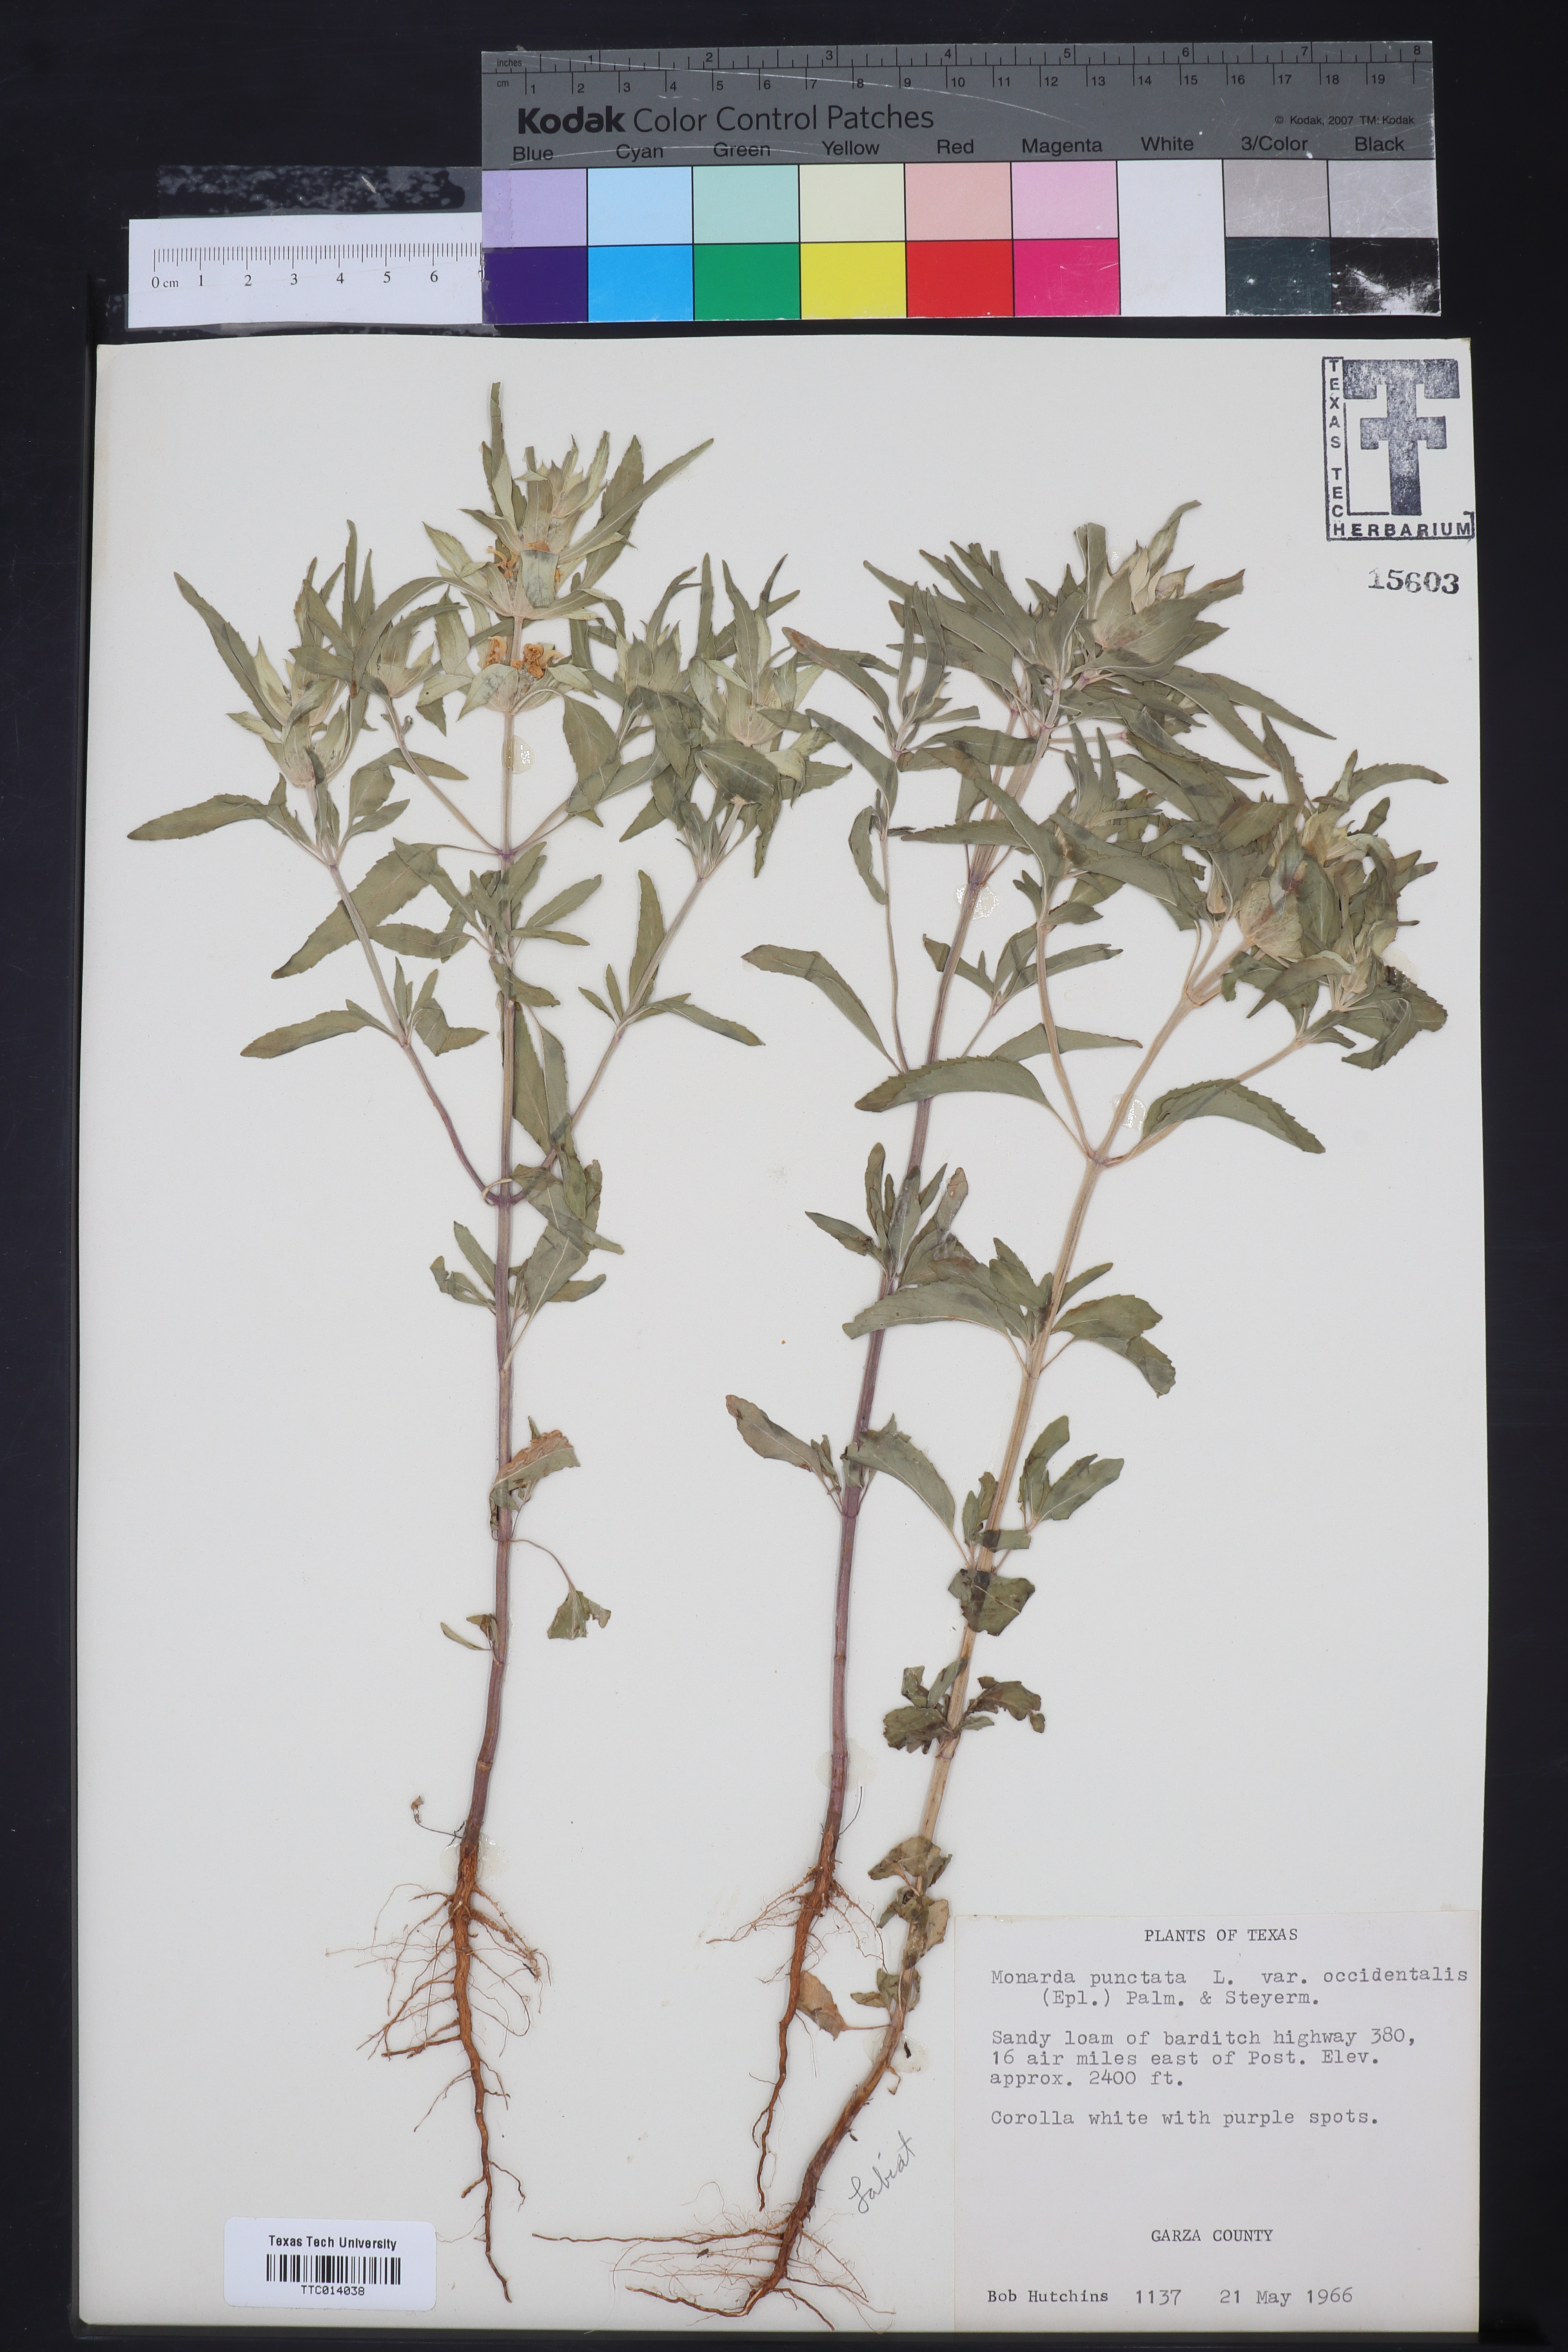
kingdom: Plantae
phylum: Tracheophyta
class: Magnoliopsida
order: Lamiales
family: Lamiaceae
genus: Monarda
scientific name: Monarda punctata
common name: Dotted monarda
